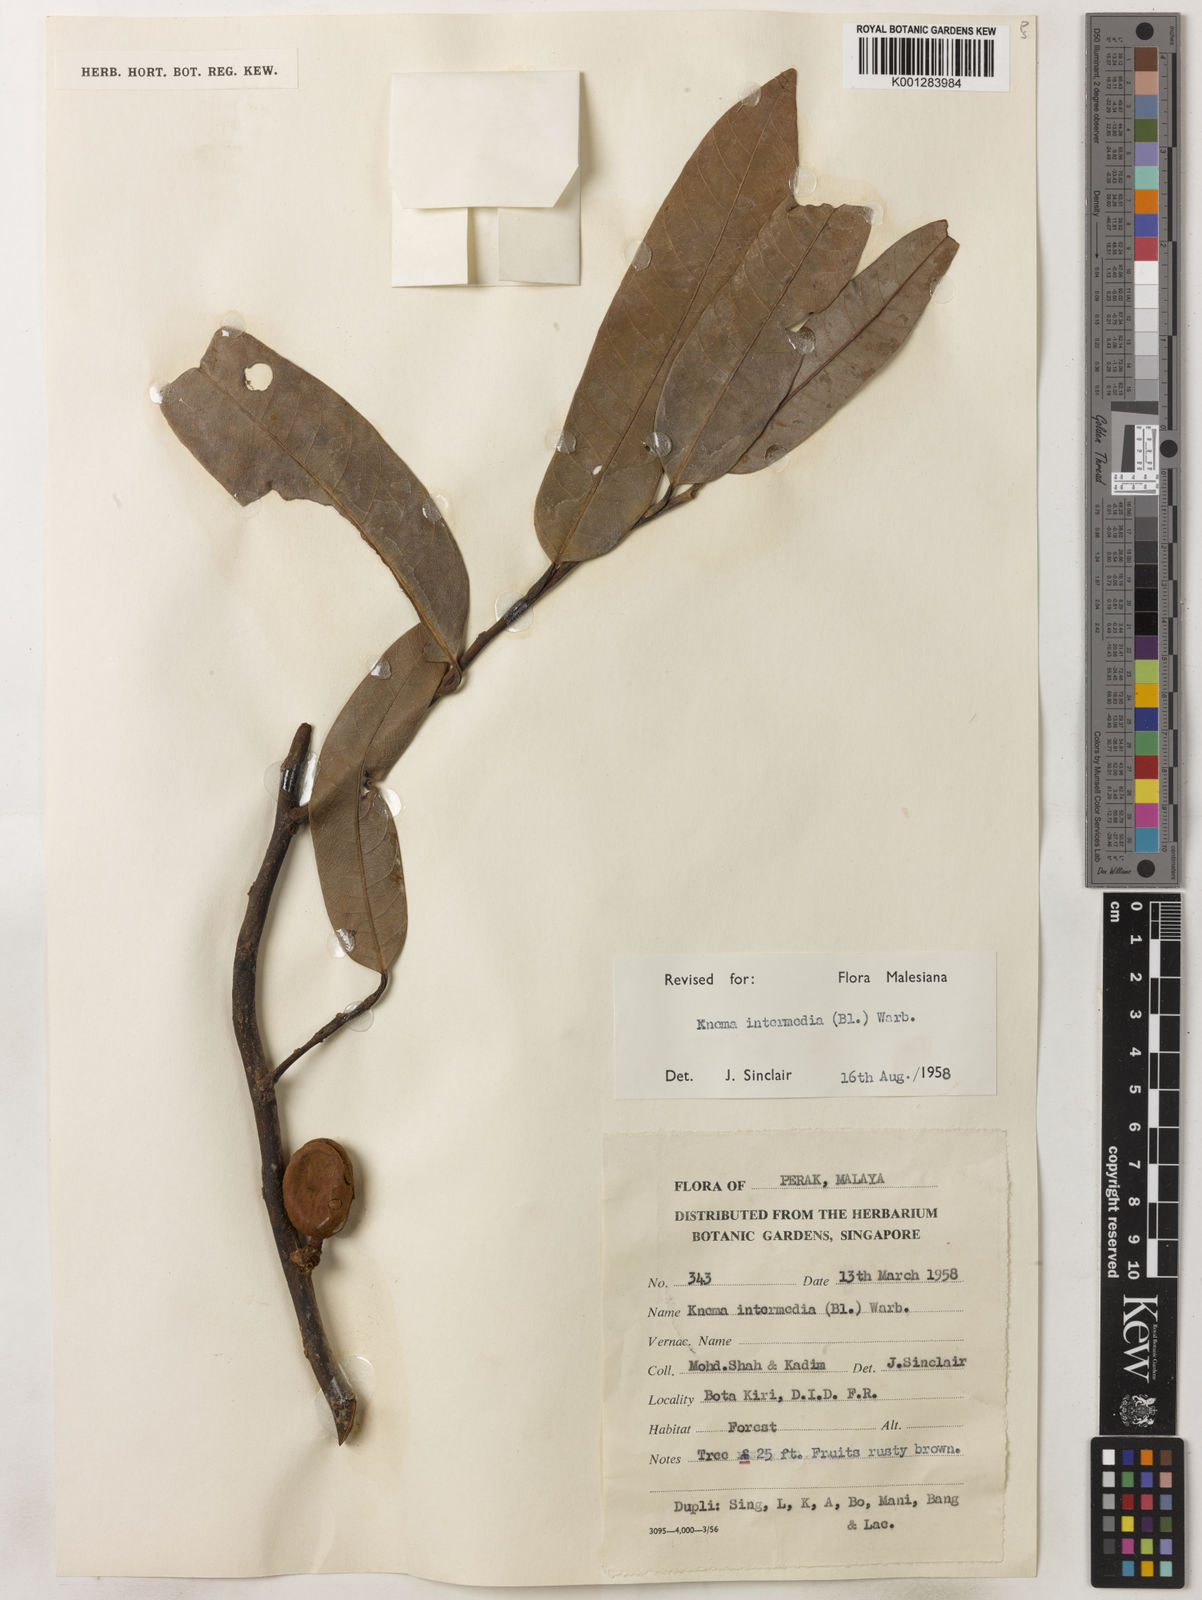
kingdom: Plantae
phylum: Tracheophyta
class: Magnoliopsida
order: Magnoliales
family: Myristicaceae
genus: Knema
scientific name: Knema intermedia
